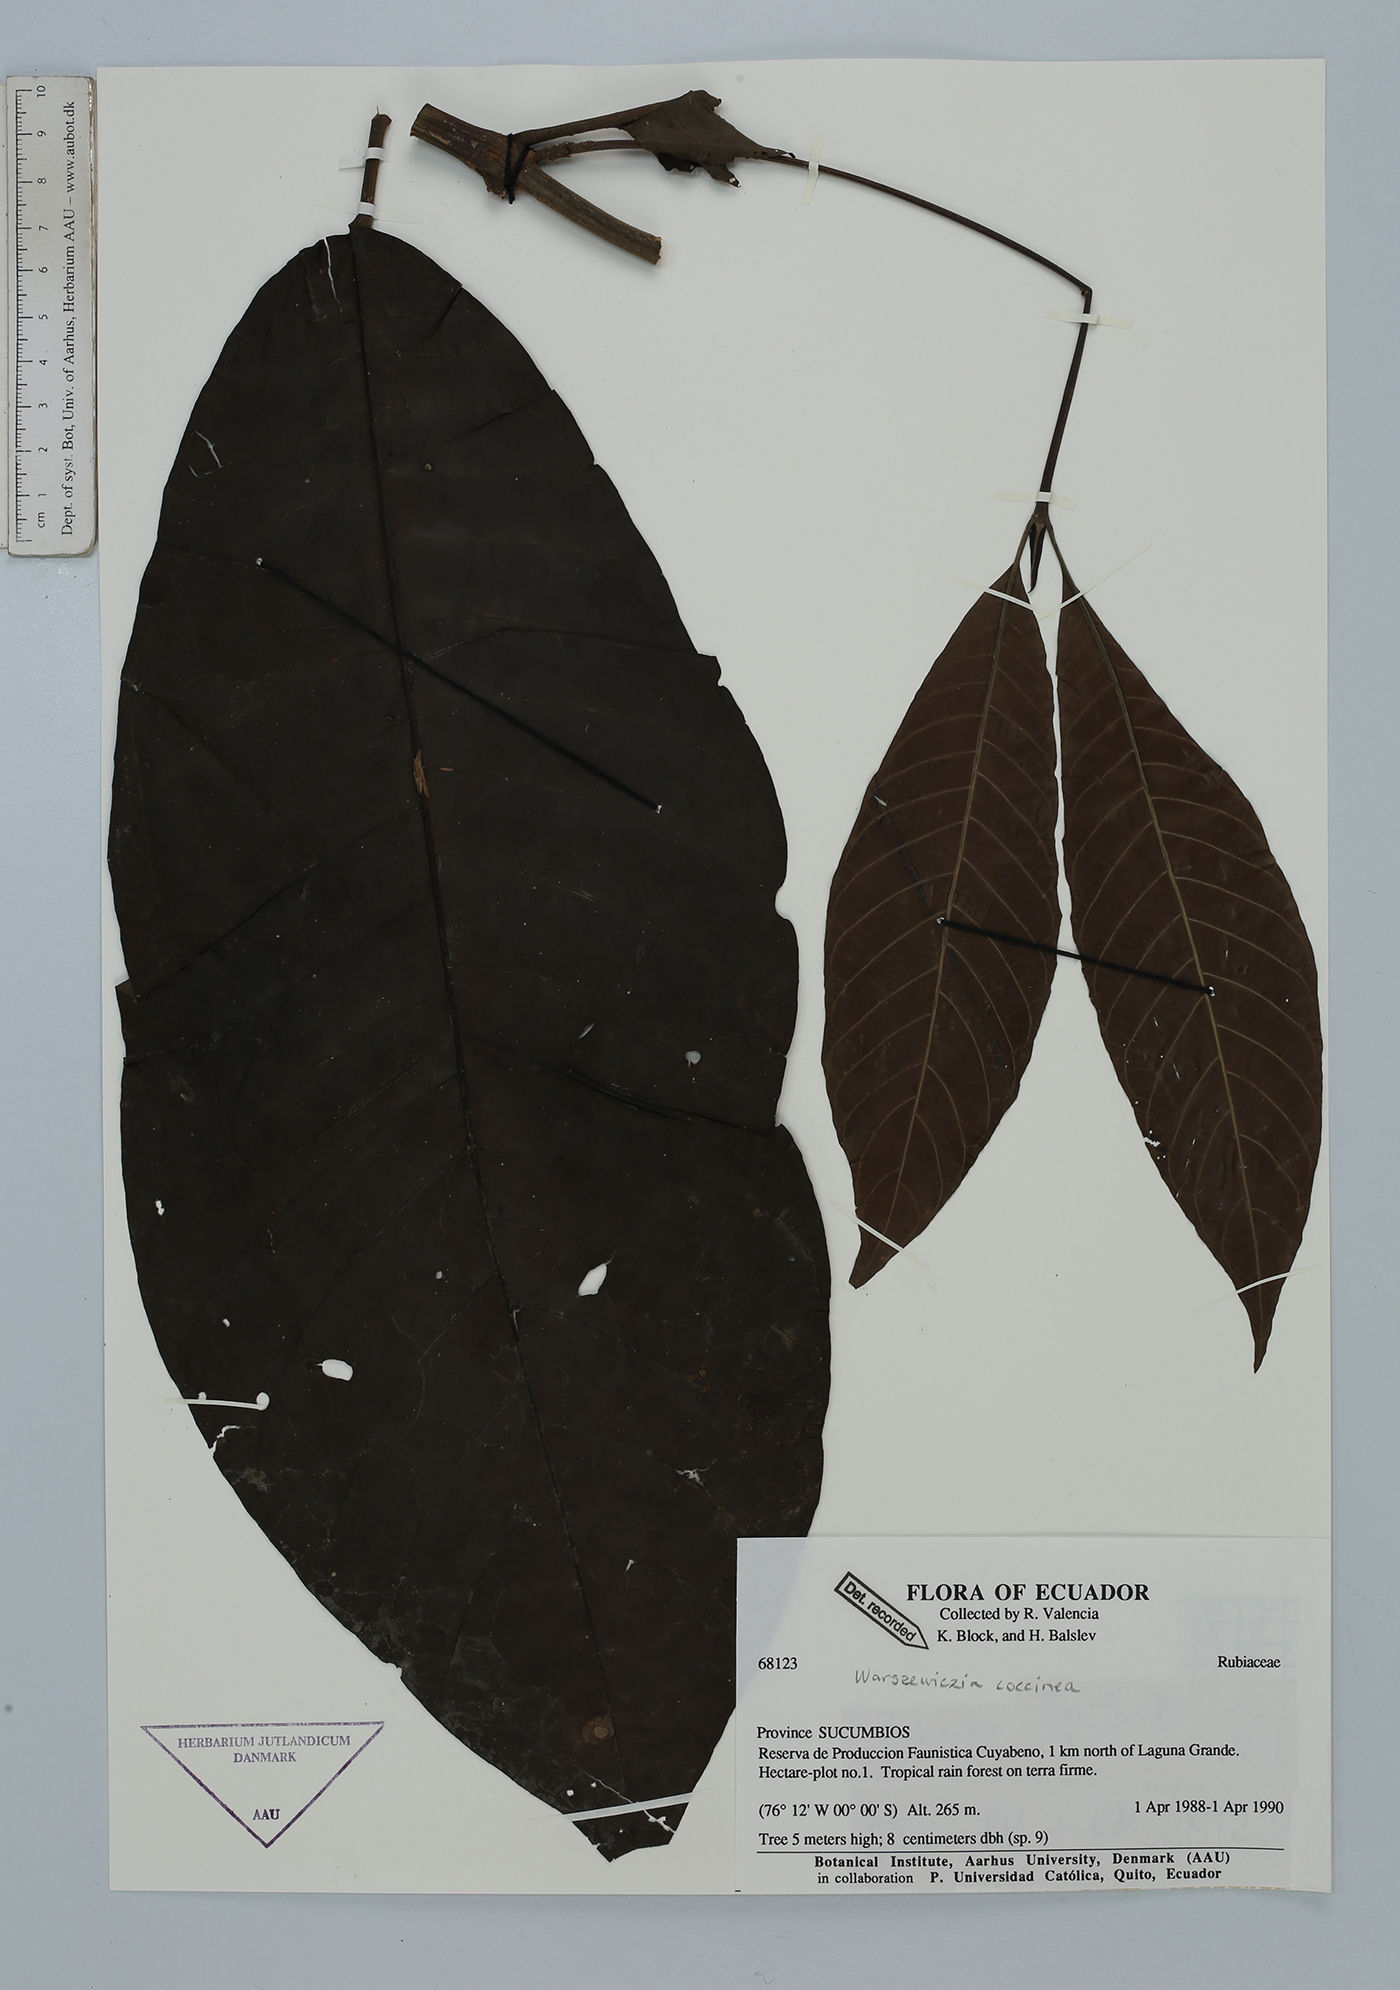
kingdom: Plantae
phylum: Tracheophyta
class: Magnoliopsida
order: Gentianales
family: Rubiaceae
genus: Warszewiczia
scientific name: Warszewiczia coccinea
